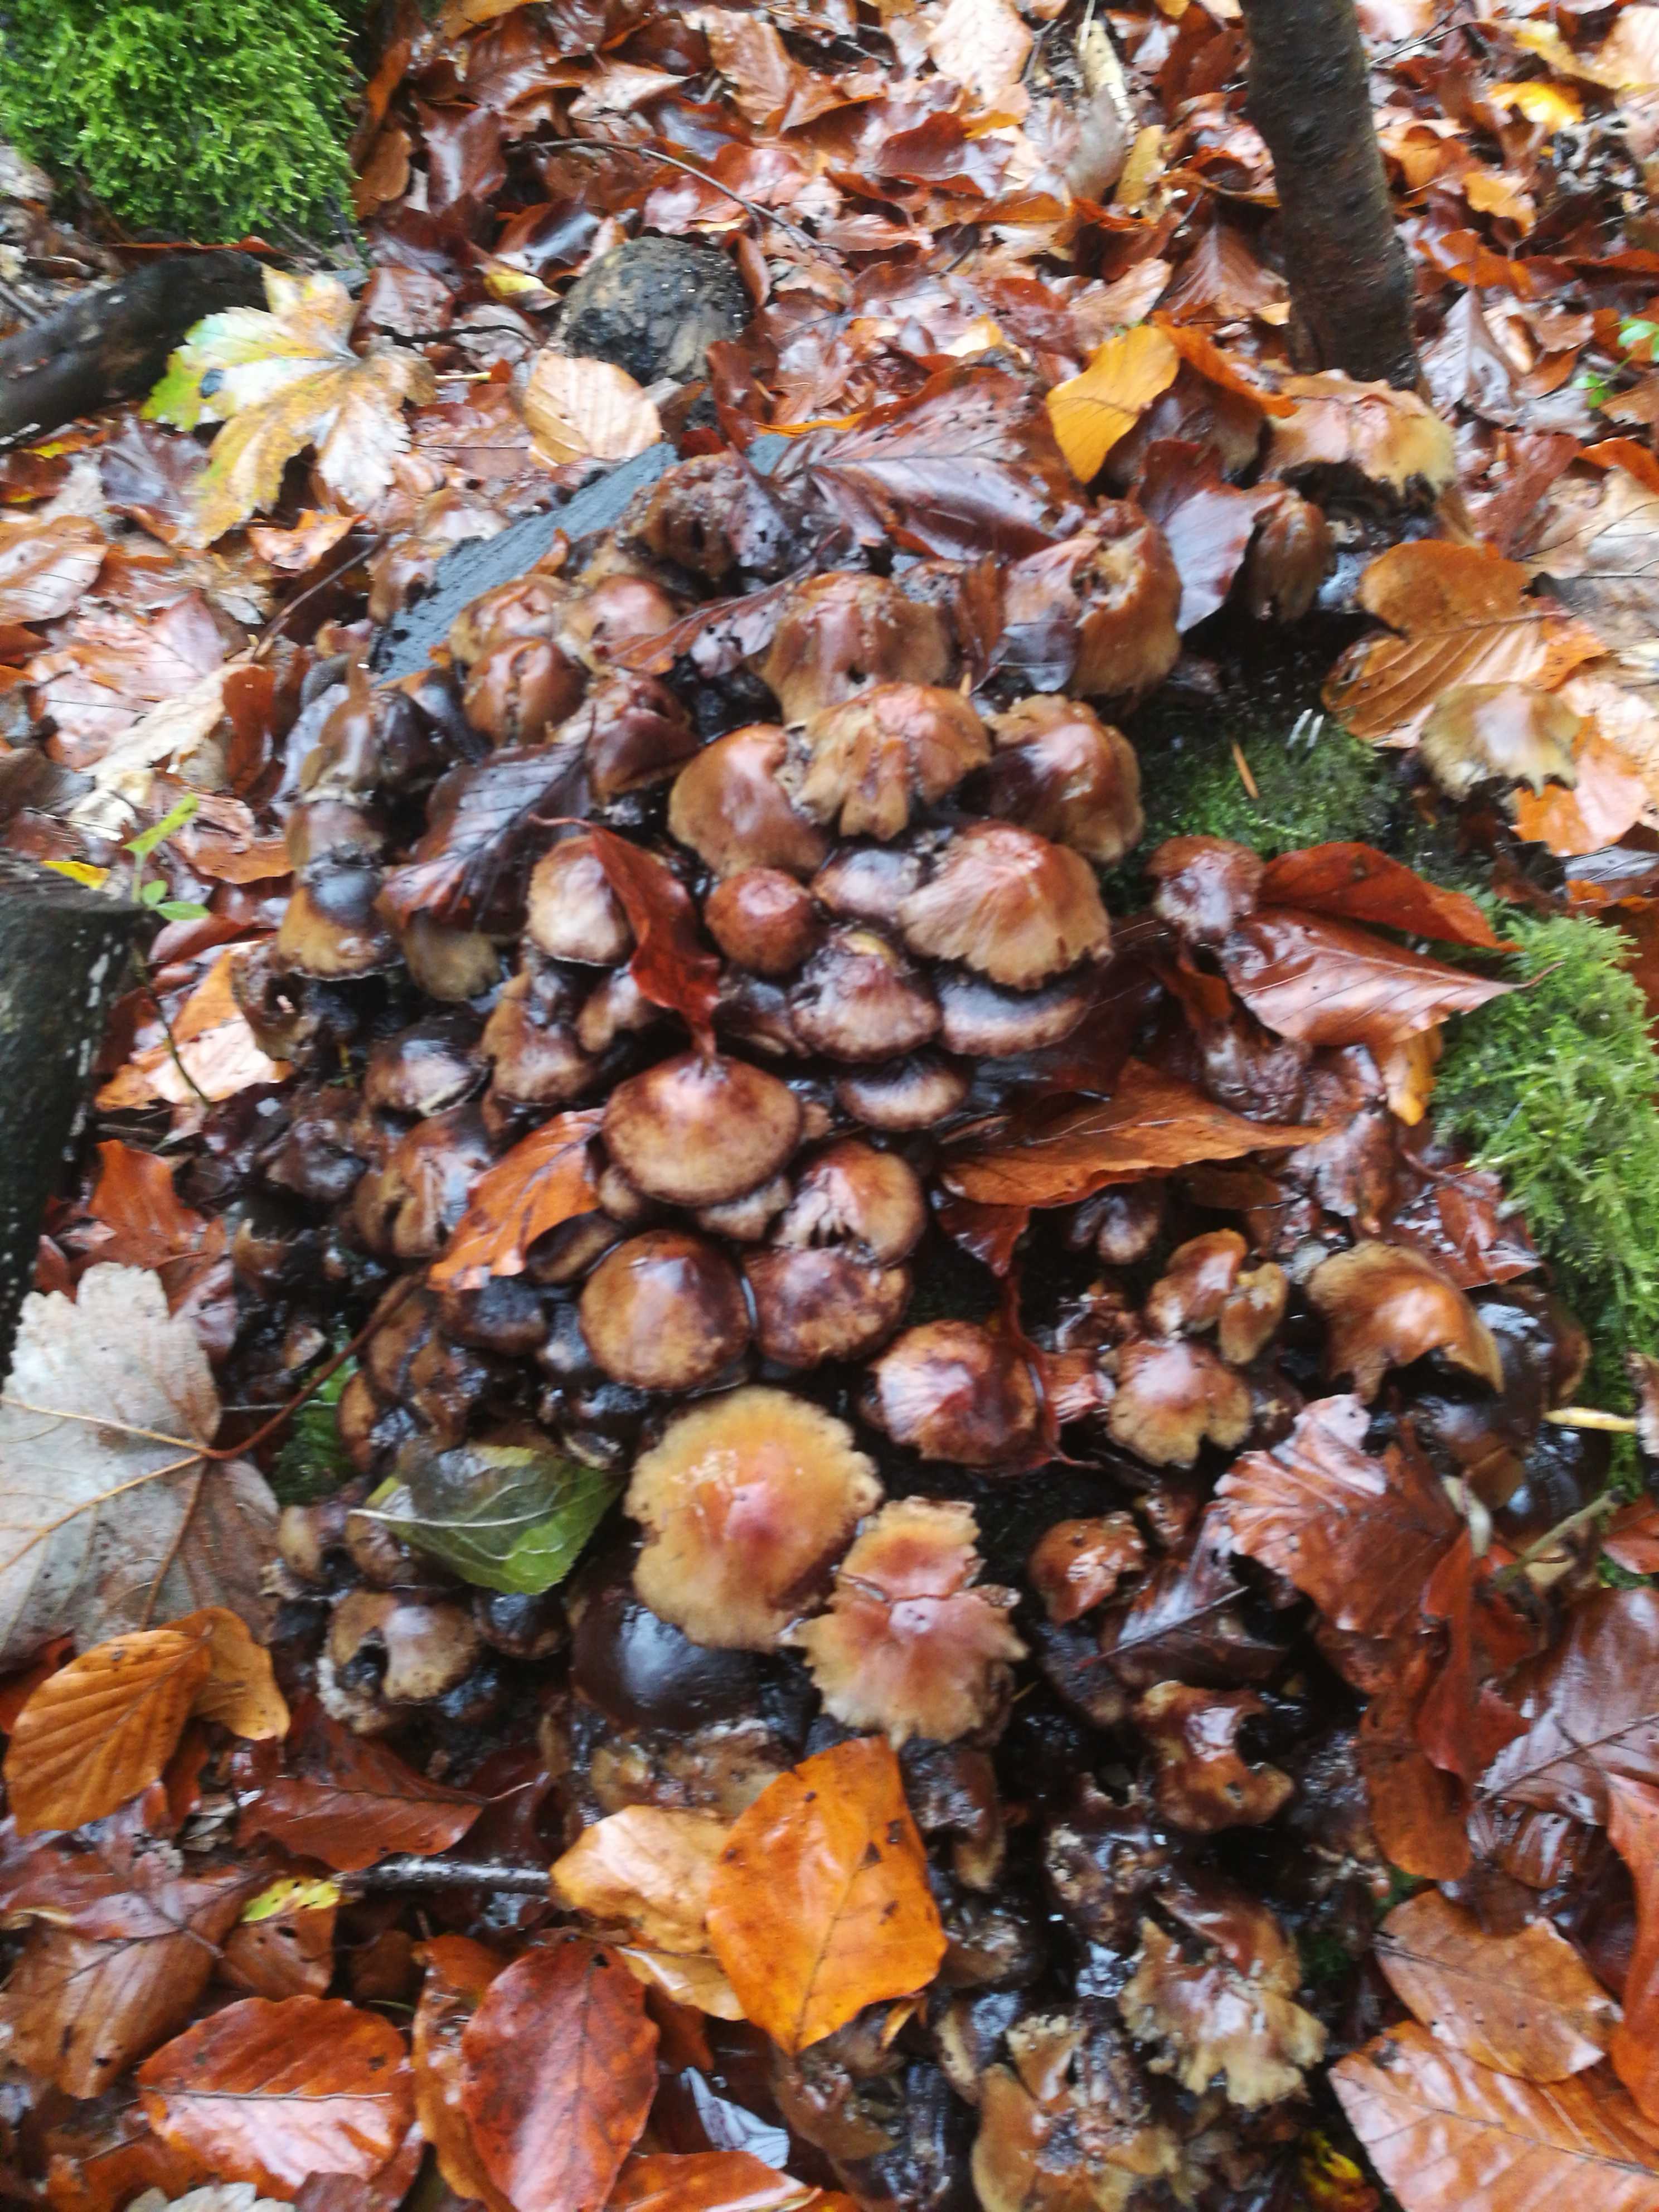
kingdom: Fungi
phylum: Basidiomycota
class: Agaricomycetes
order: Agaricales
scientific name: Agaricales
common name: champignonordenen
